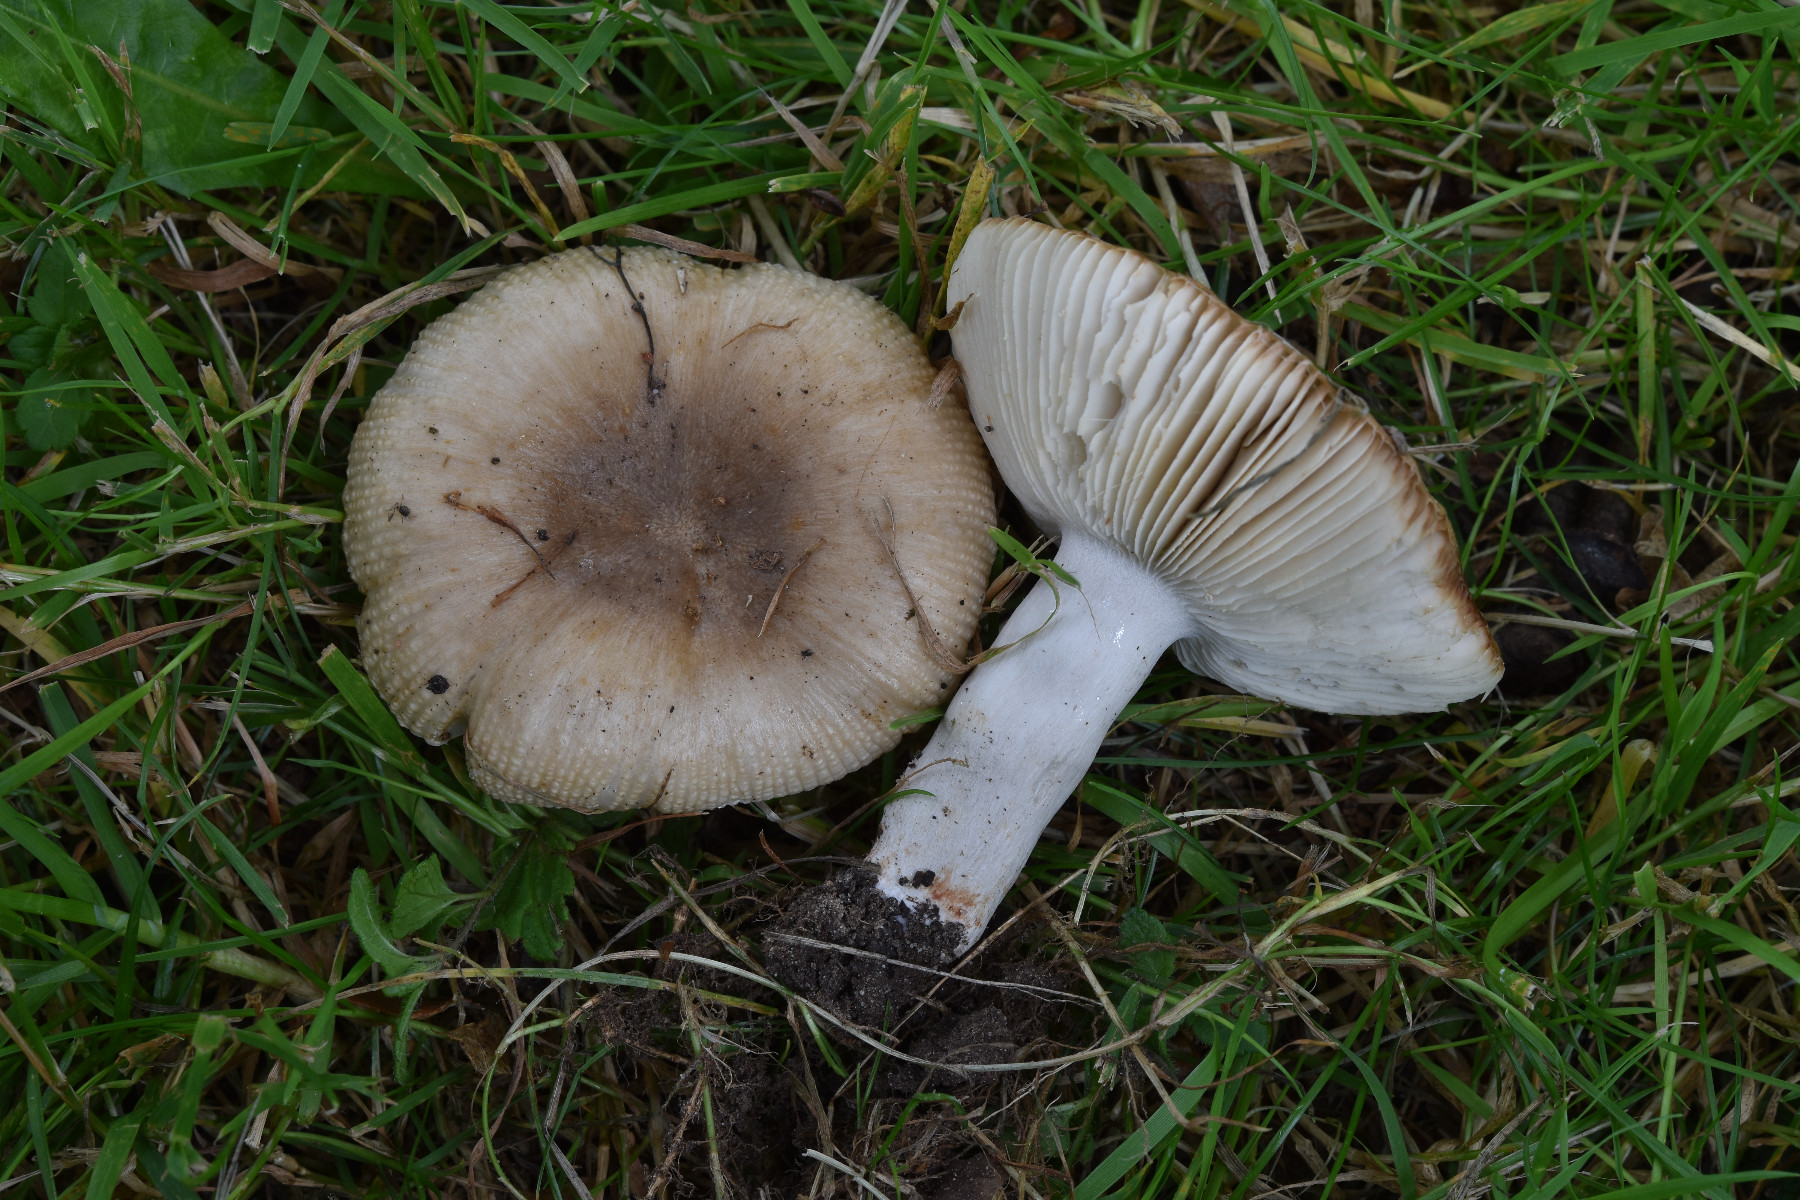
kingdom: Fungi
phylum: Basidiomycota
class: Agaricomycetes
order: Russulales
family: Russulaceae
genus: Russula
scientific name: Russula recondita
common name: mild kam-skørhat
